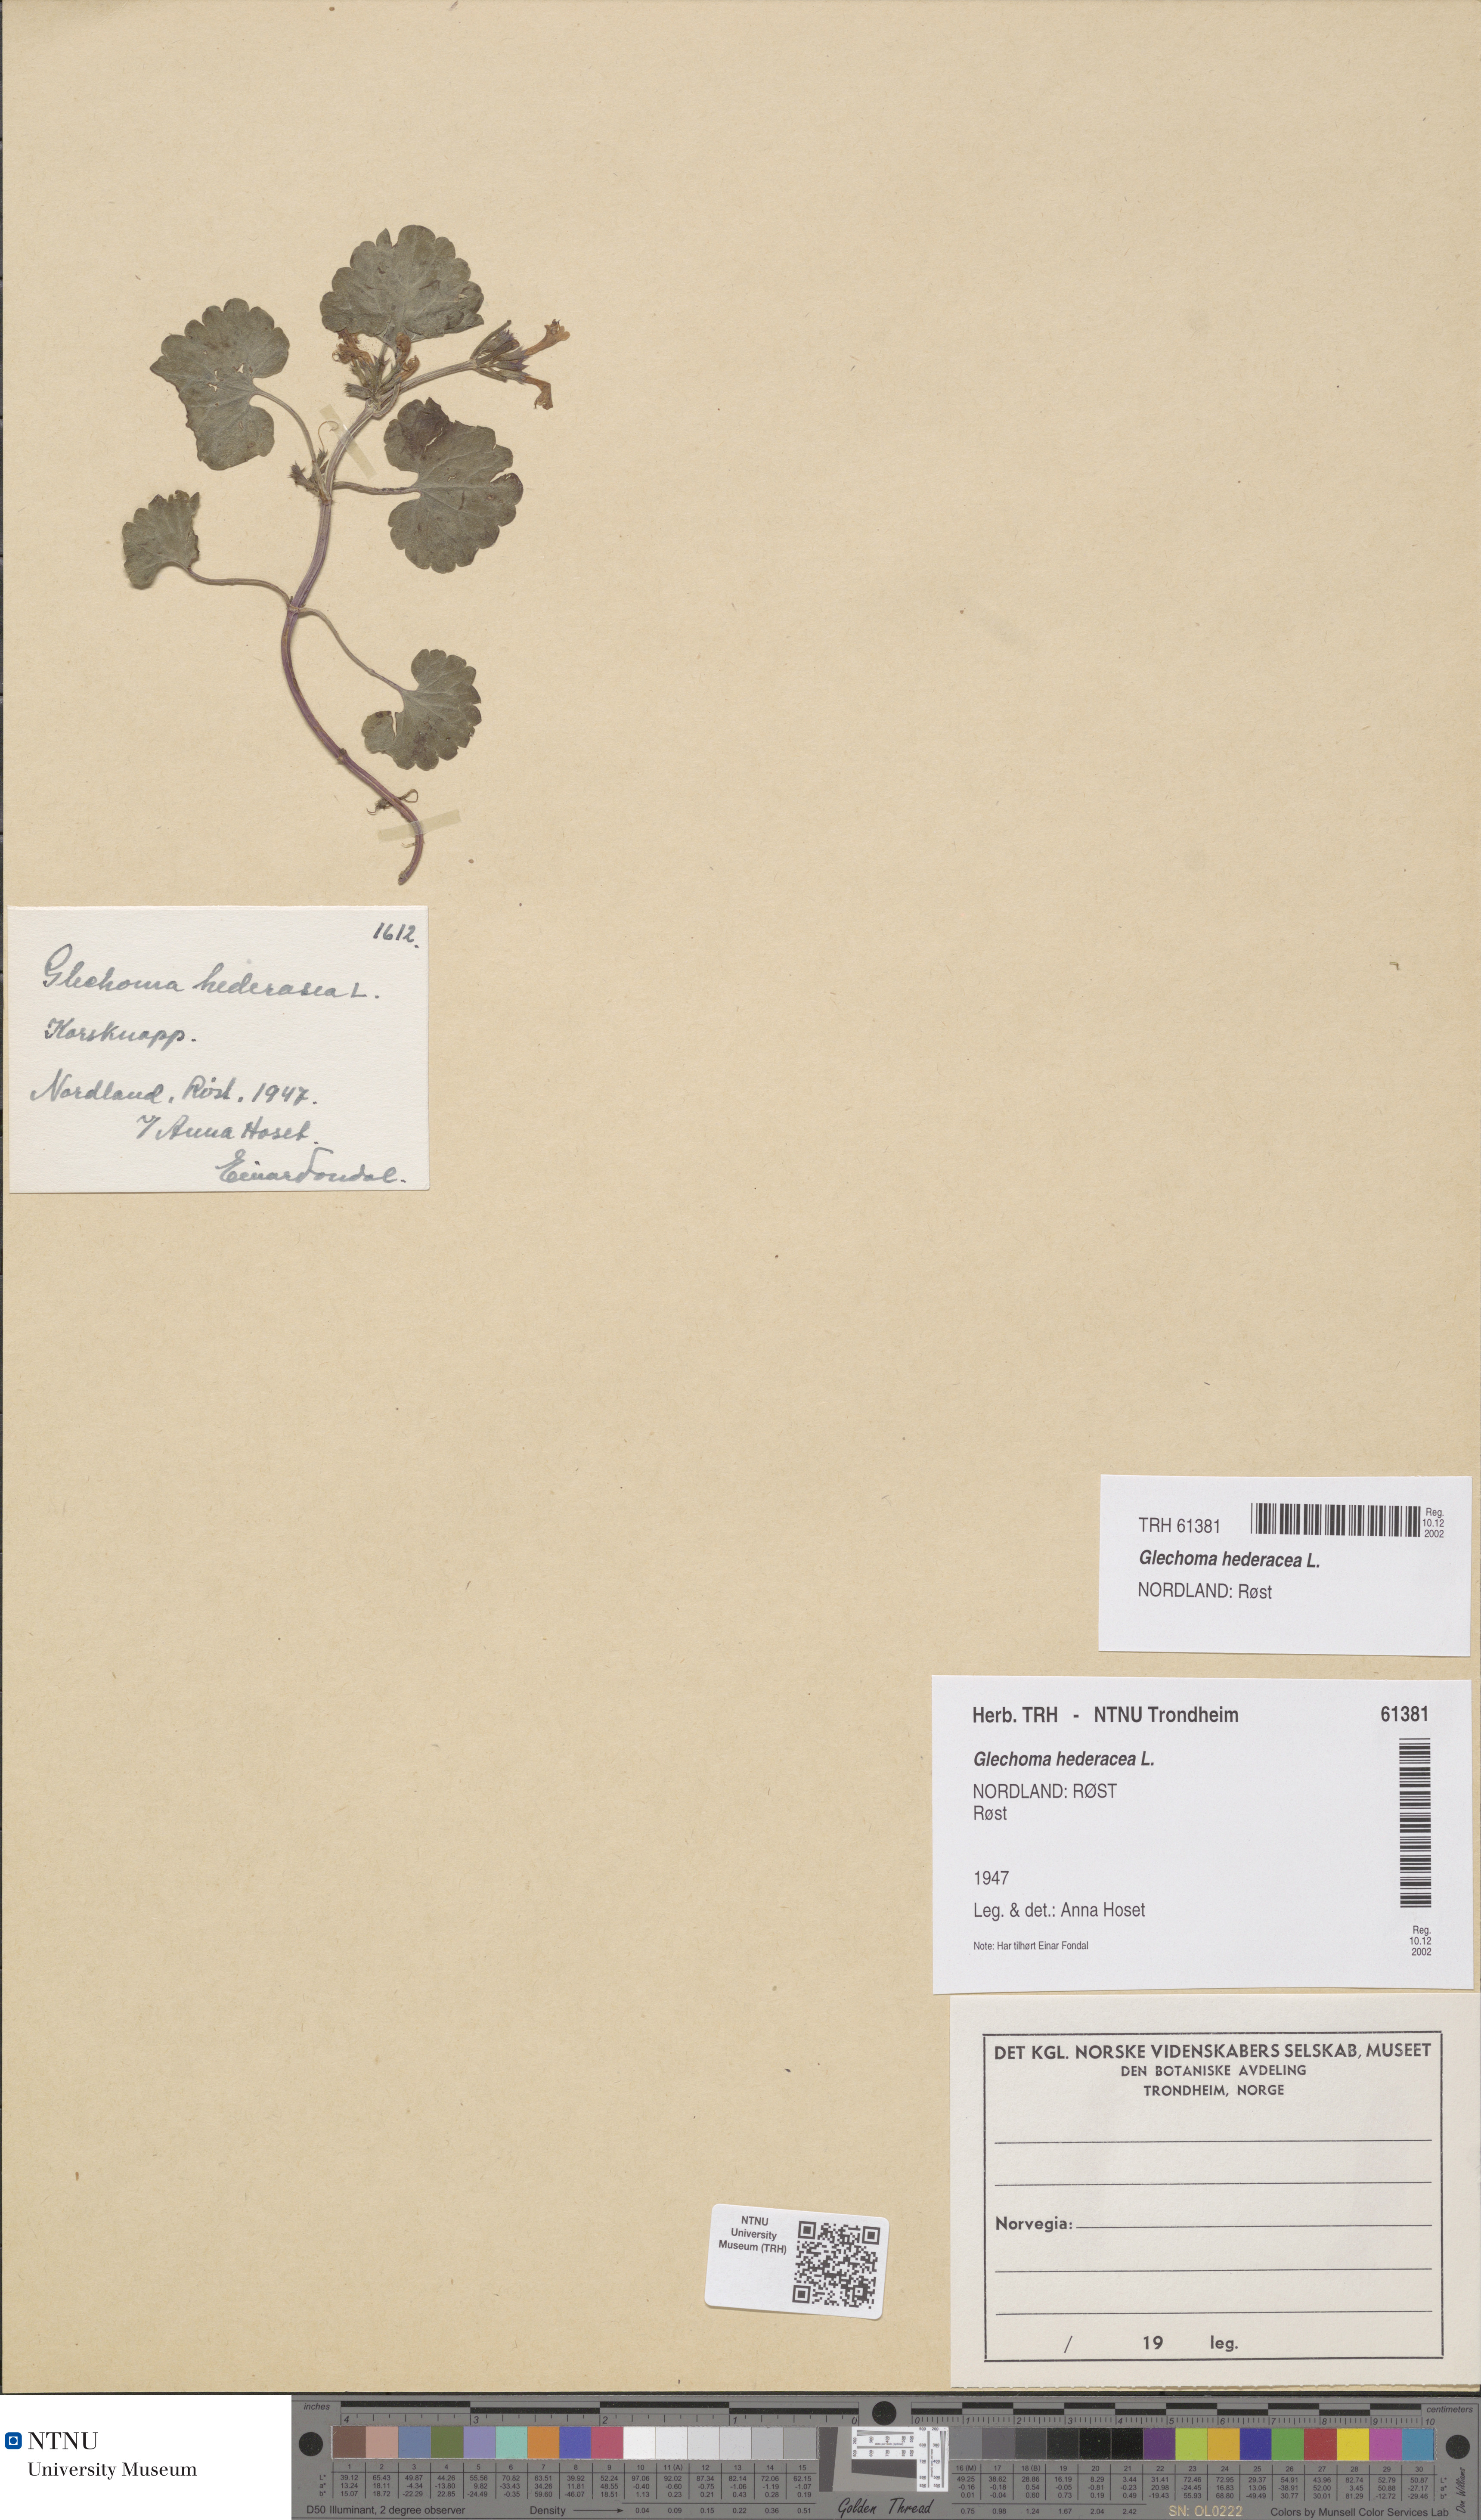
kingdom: Plantae
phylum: Tracheophyta
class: Magnoliopsida
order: Lamiales
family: Lamiaceae
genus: Glechoma
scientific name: Glechoma hederacea
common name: Ground ivy
